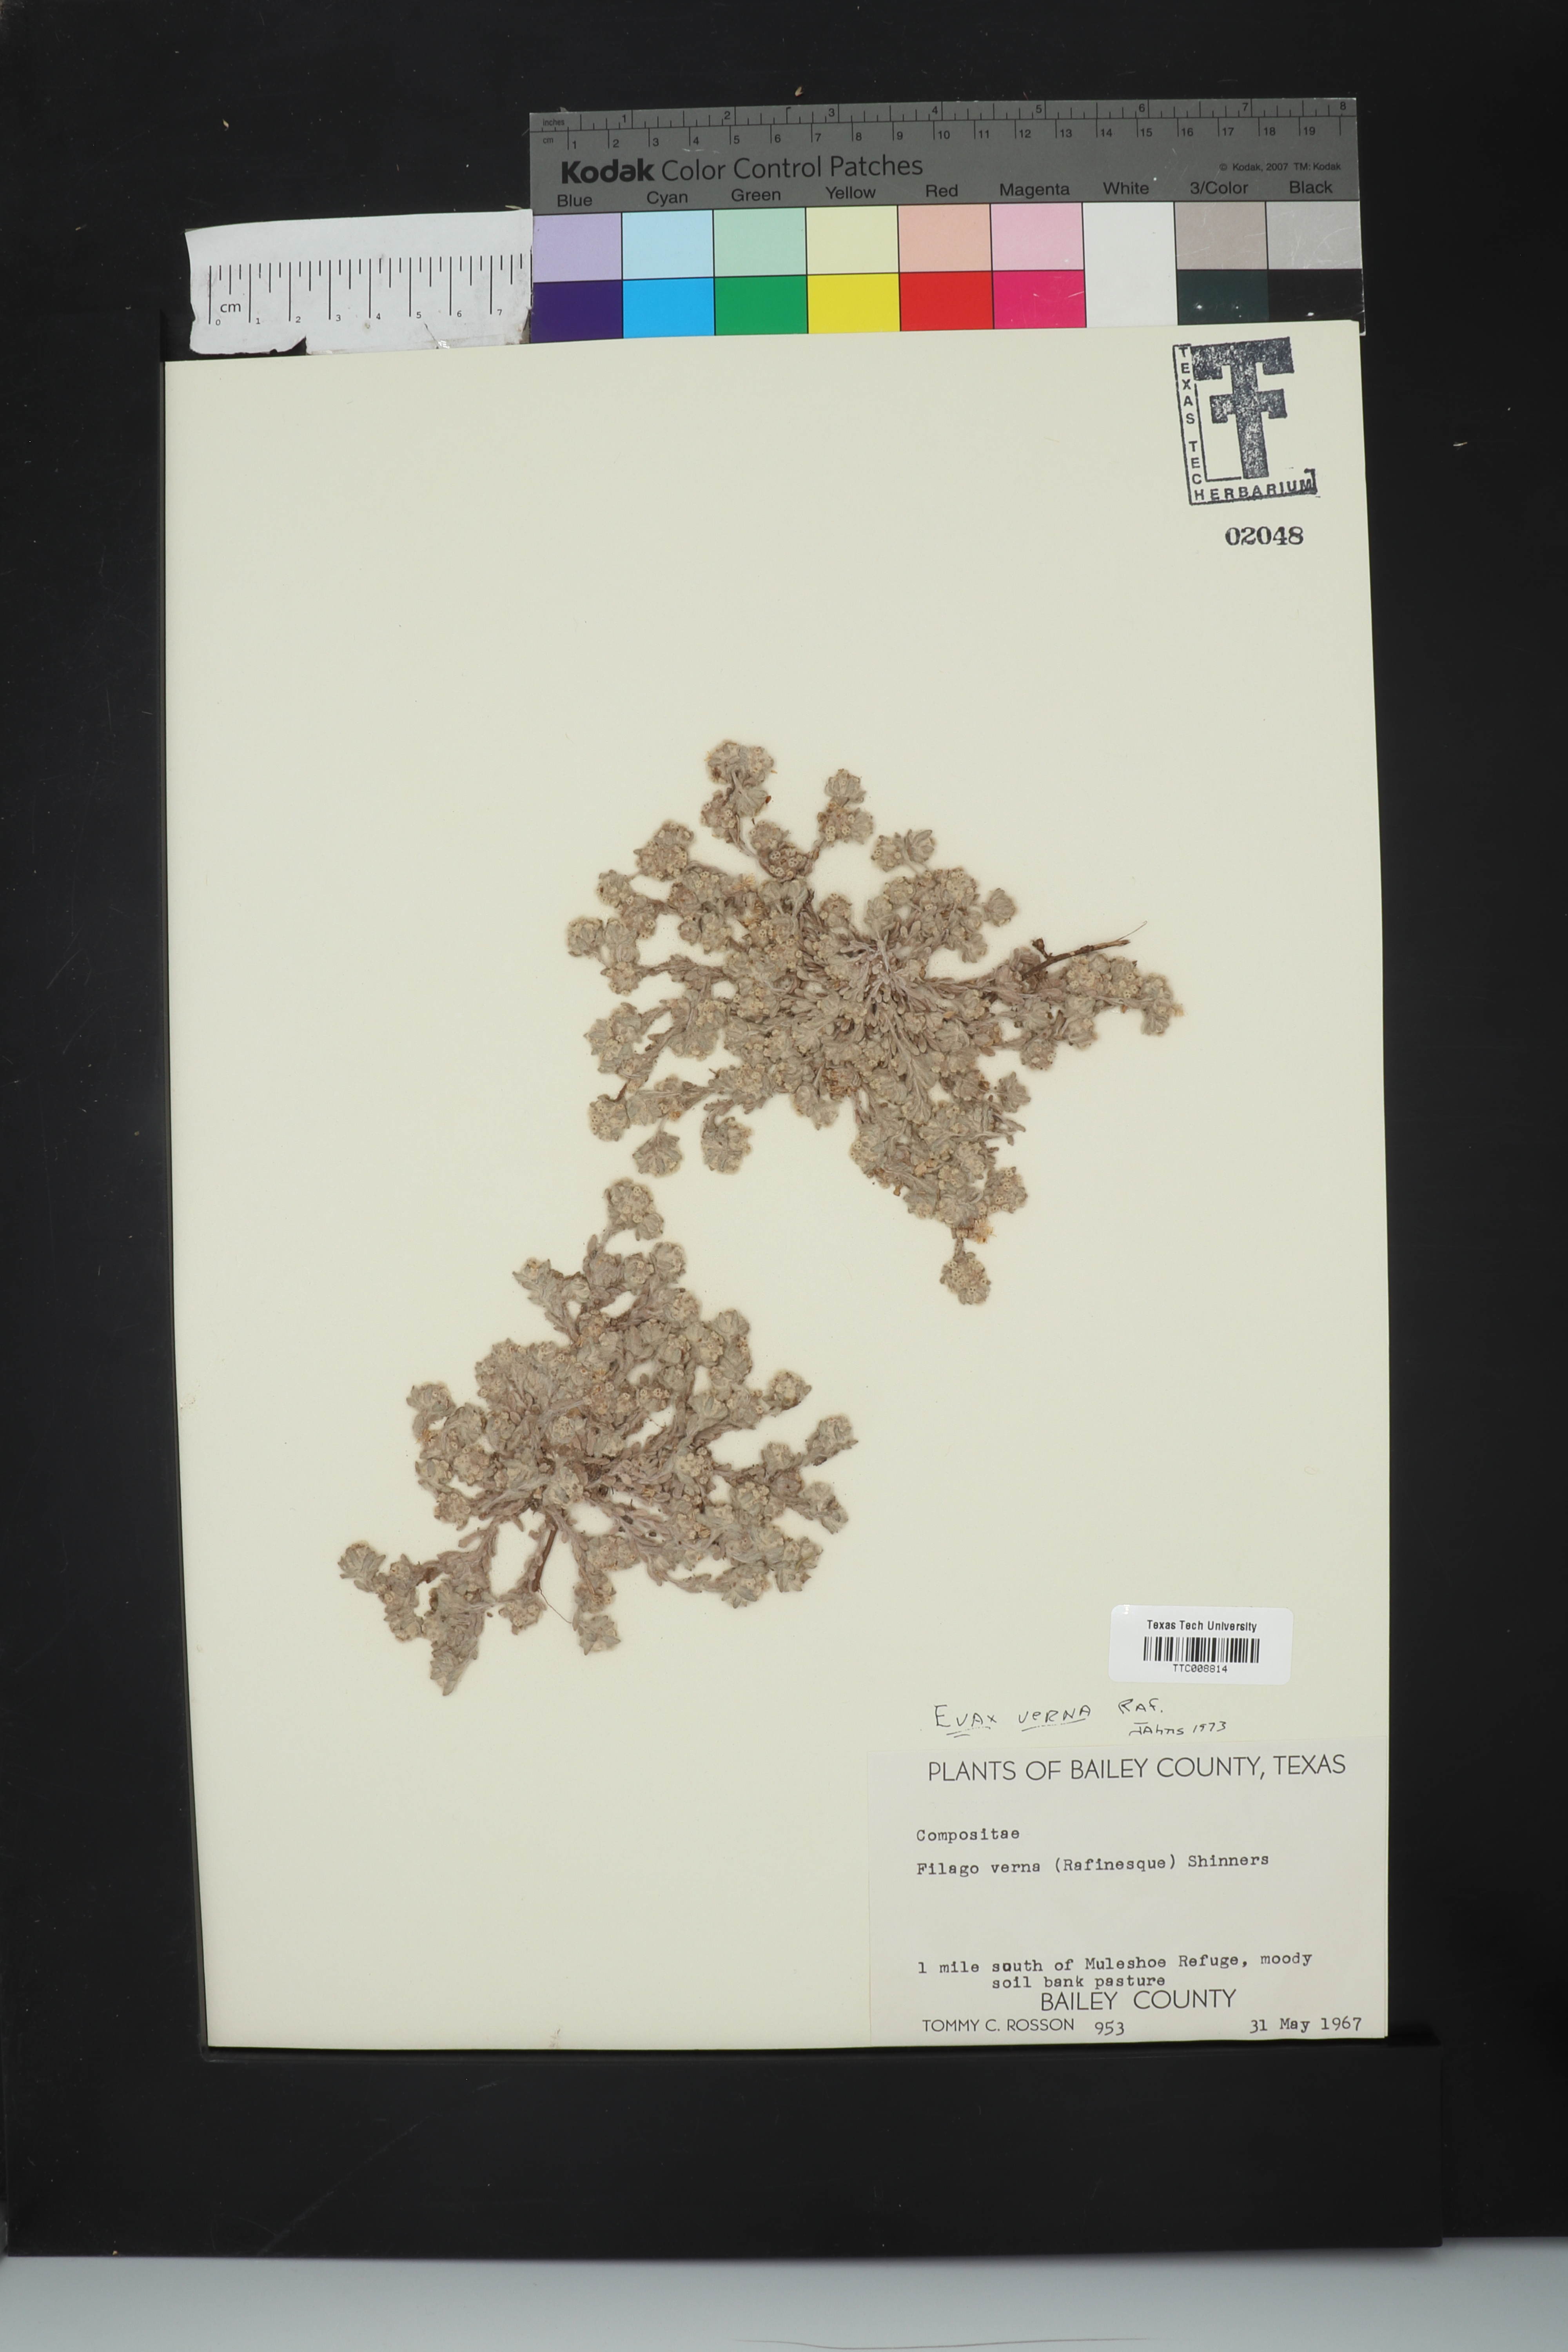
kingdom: Plantae
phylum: Tracheophyta
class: Magnoliopsida
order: Asterales
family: Asteraceae
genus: Diaperia
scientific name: Diaperia verna
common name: Many-stem rabbit-tobacco
